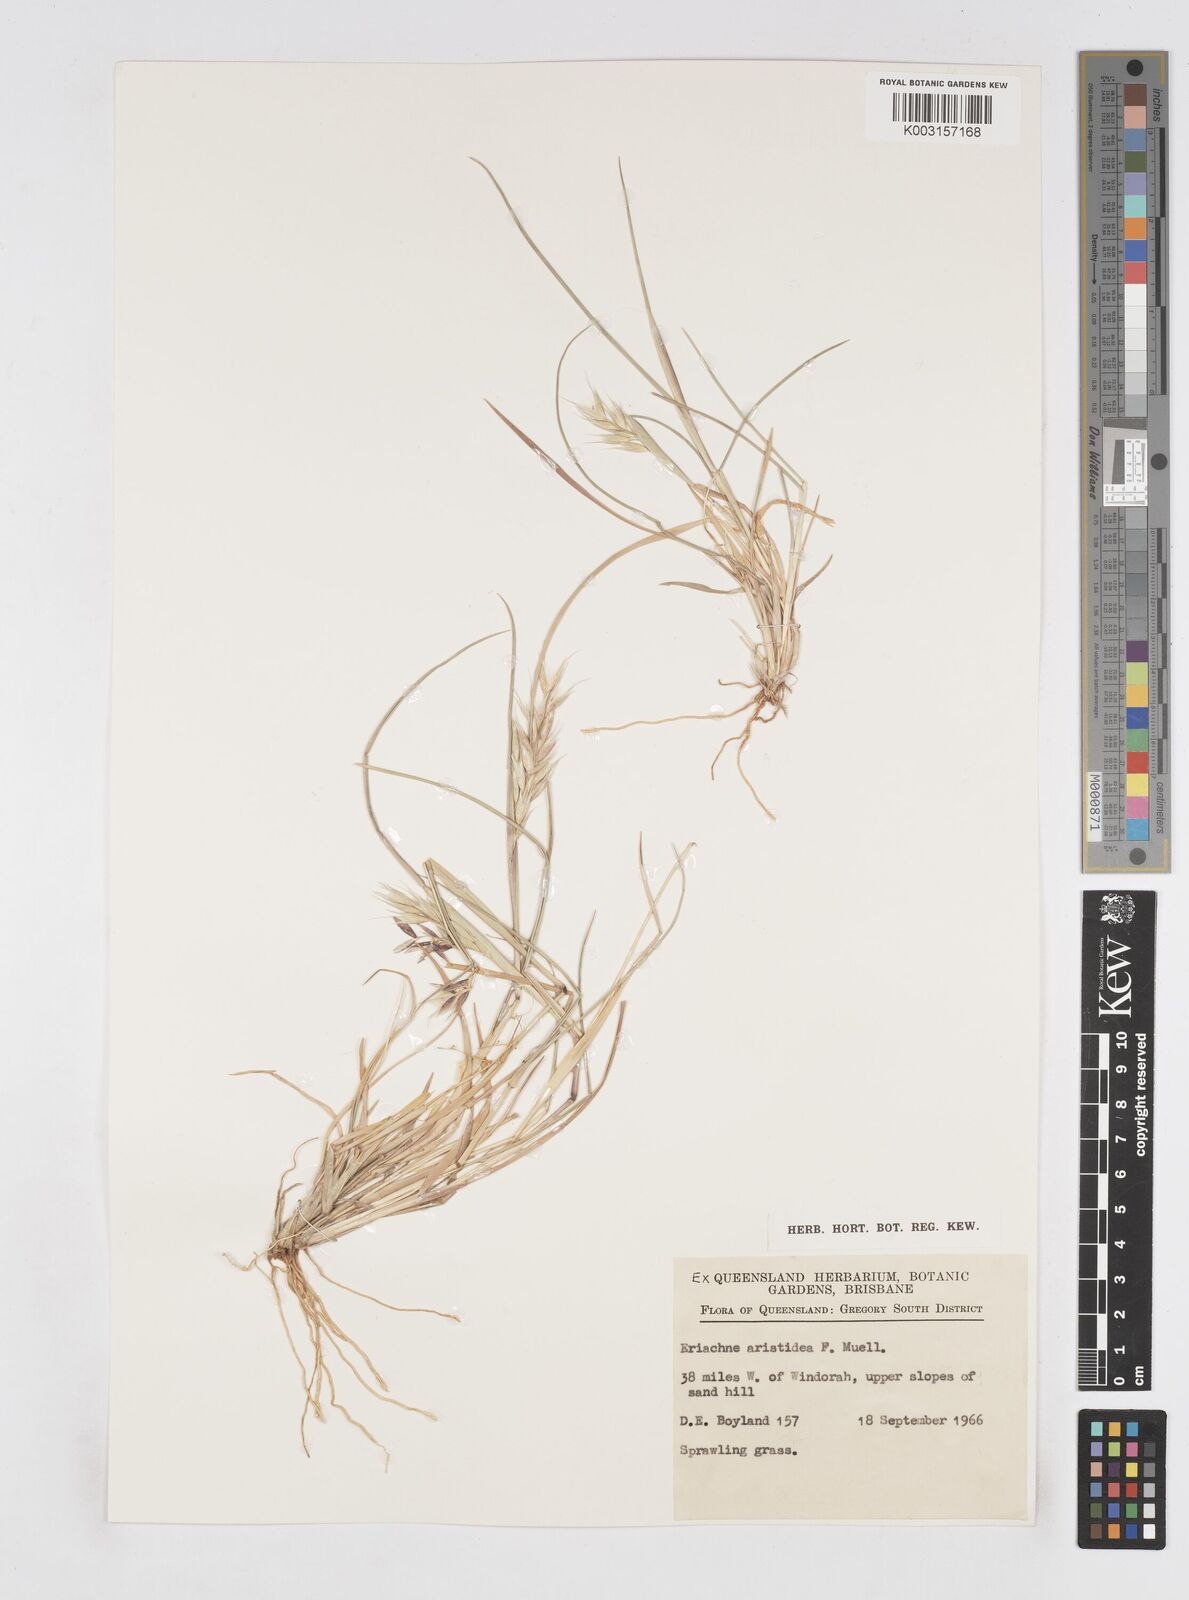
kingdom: Plantae
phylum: Tracheophyta
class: Liliopsida
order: Poales
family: Poaceae
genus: Eriachne
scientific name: Eriachne aristidea
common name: Three-awn wanderrie grass
